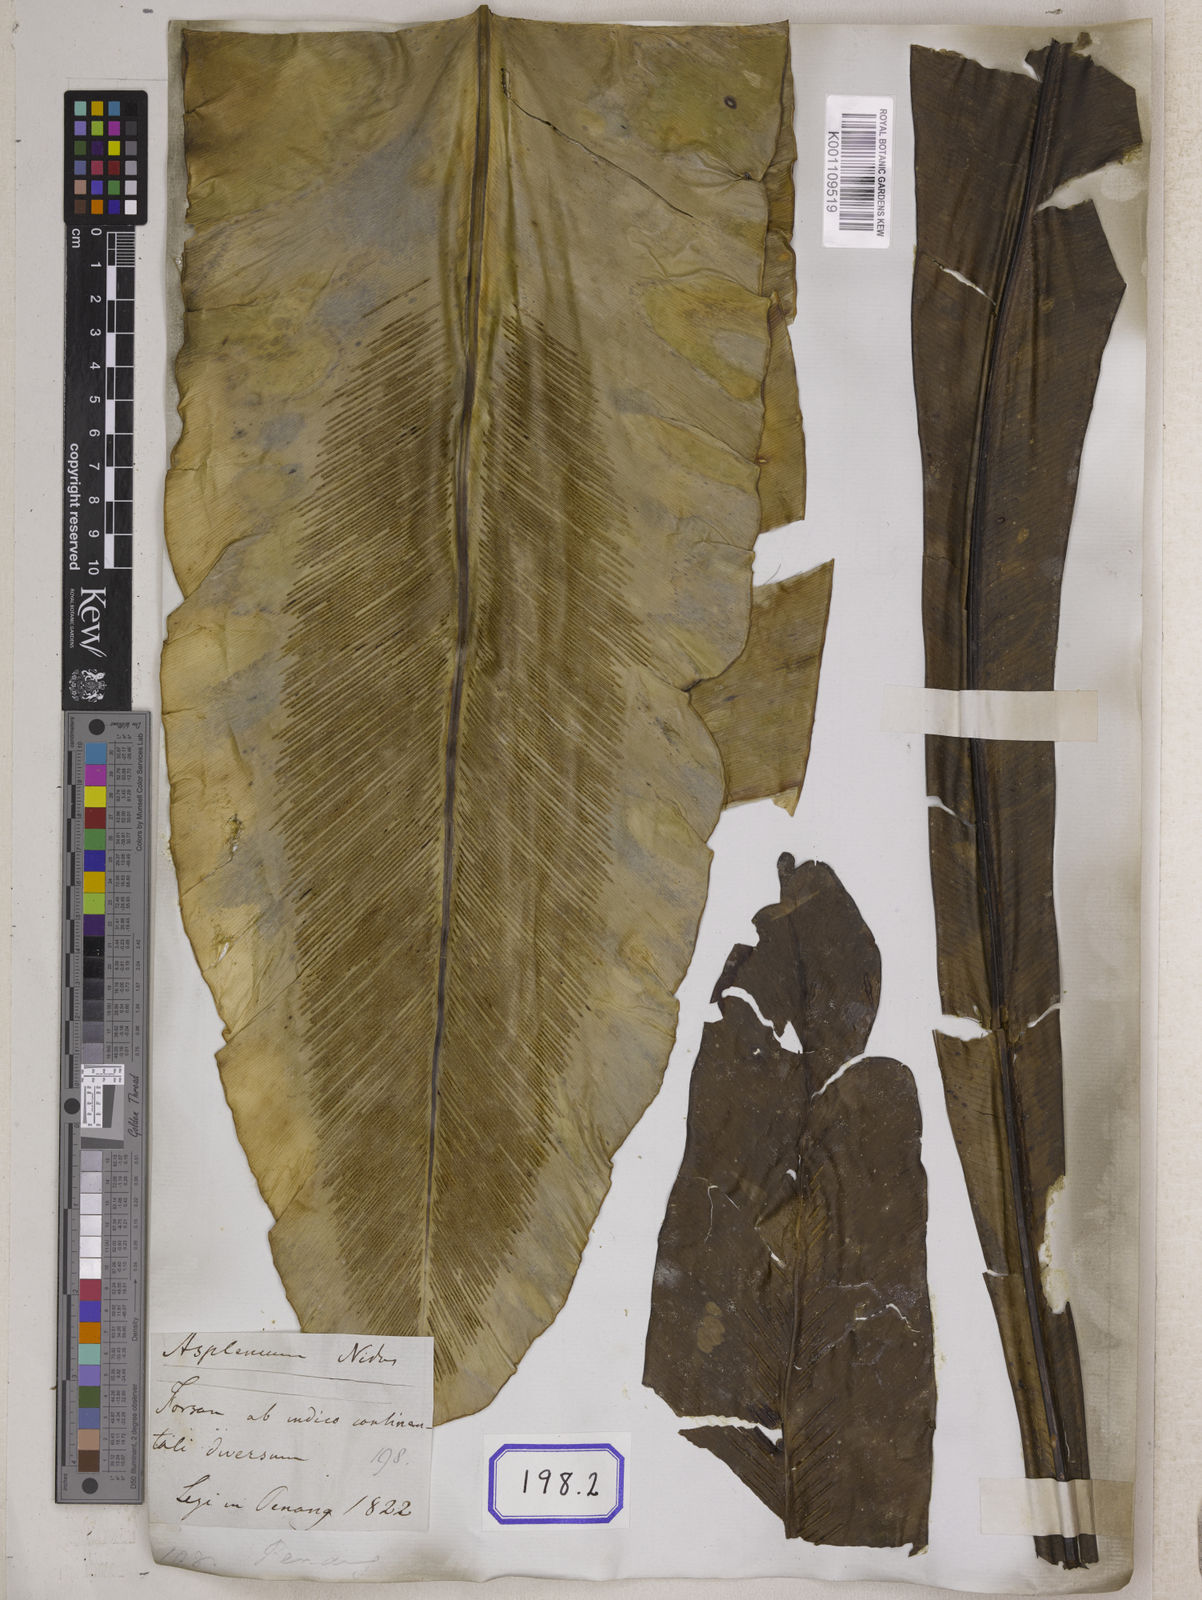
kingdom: Plantae
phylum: Tracheophyta
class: Polypodiopsida
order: Polypodiales
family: Aspleniaceae
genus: Asplenium
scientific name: Asplenium nidus
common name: Bird's-nest fern
